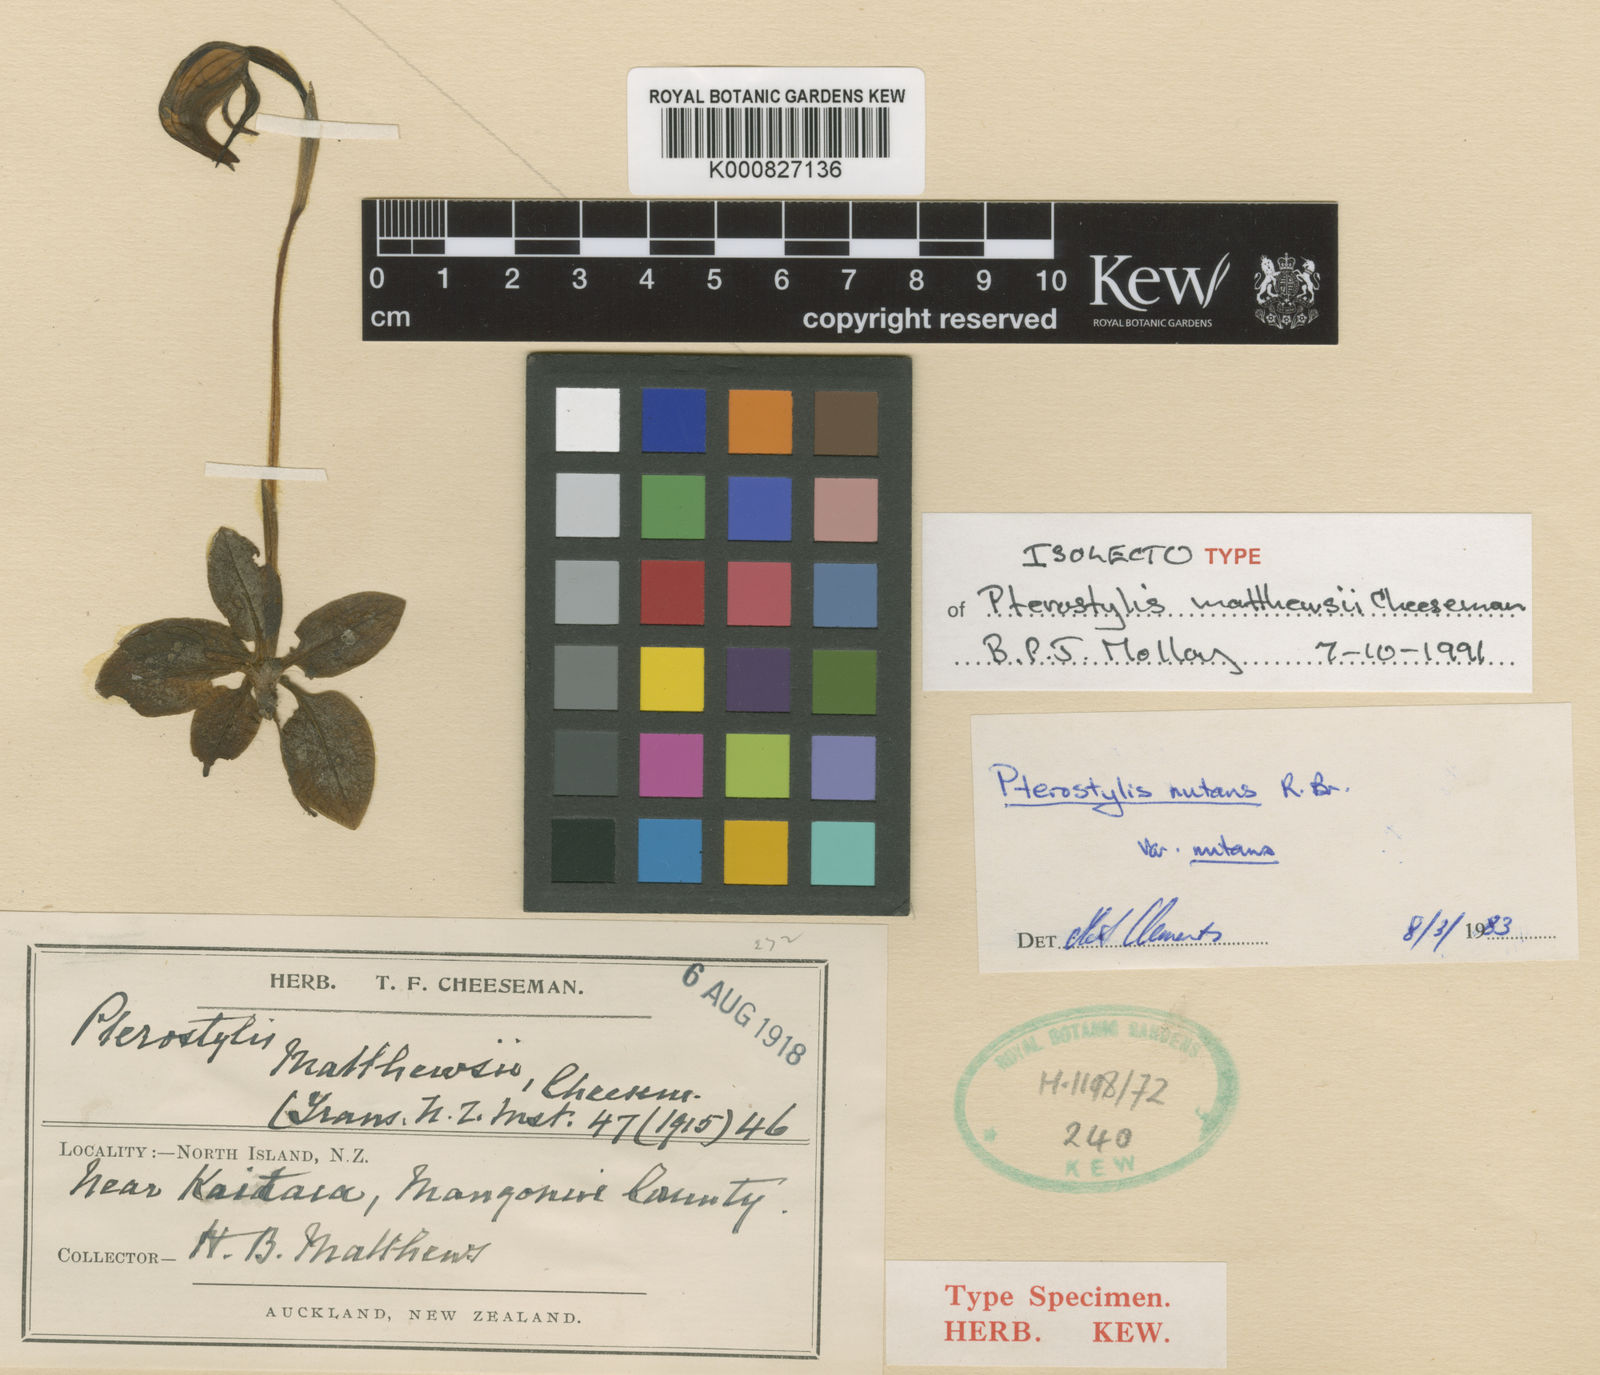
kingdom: Plantae
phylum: Tracheophyta
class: Liliopsida
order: Asparagales
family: Orchidaceae
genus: Pterostylis
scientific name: Pterostylis cycnocephala
